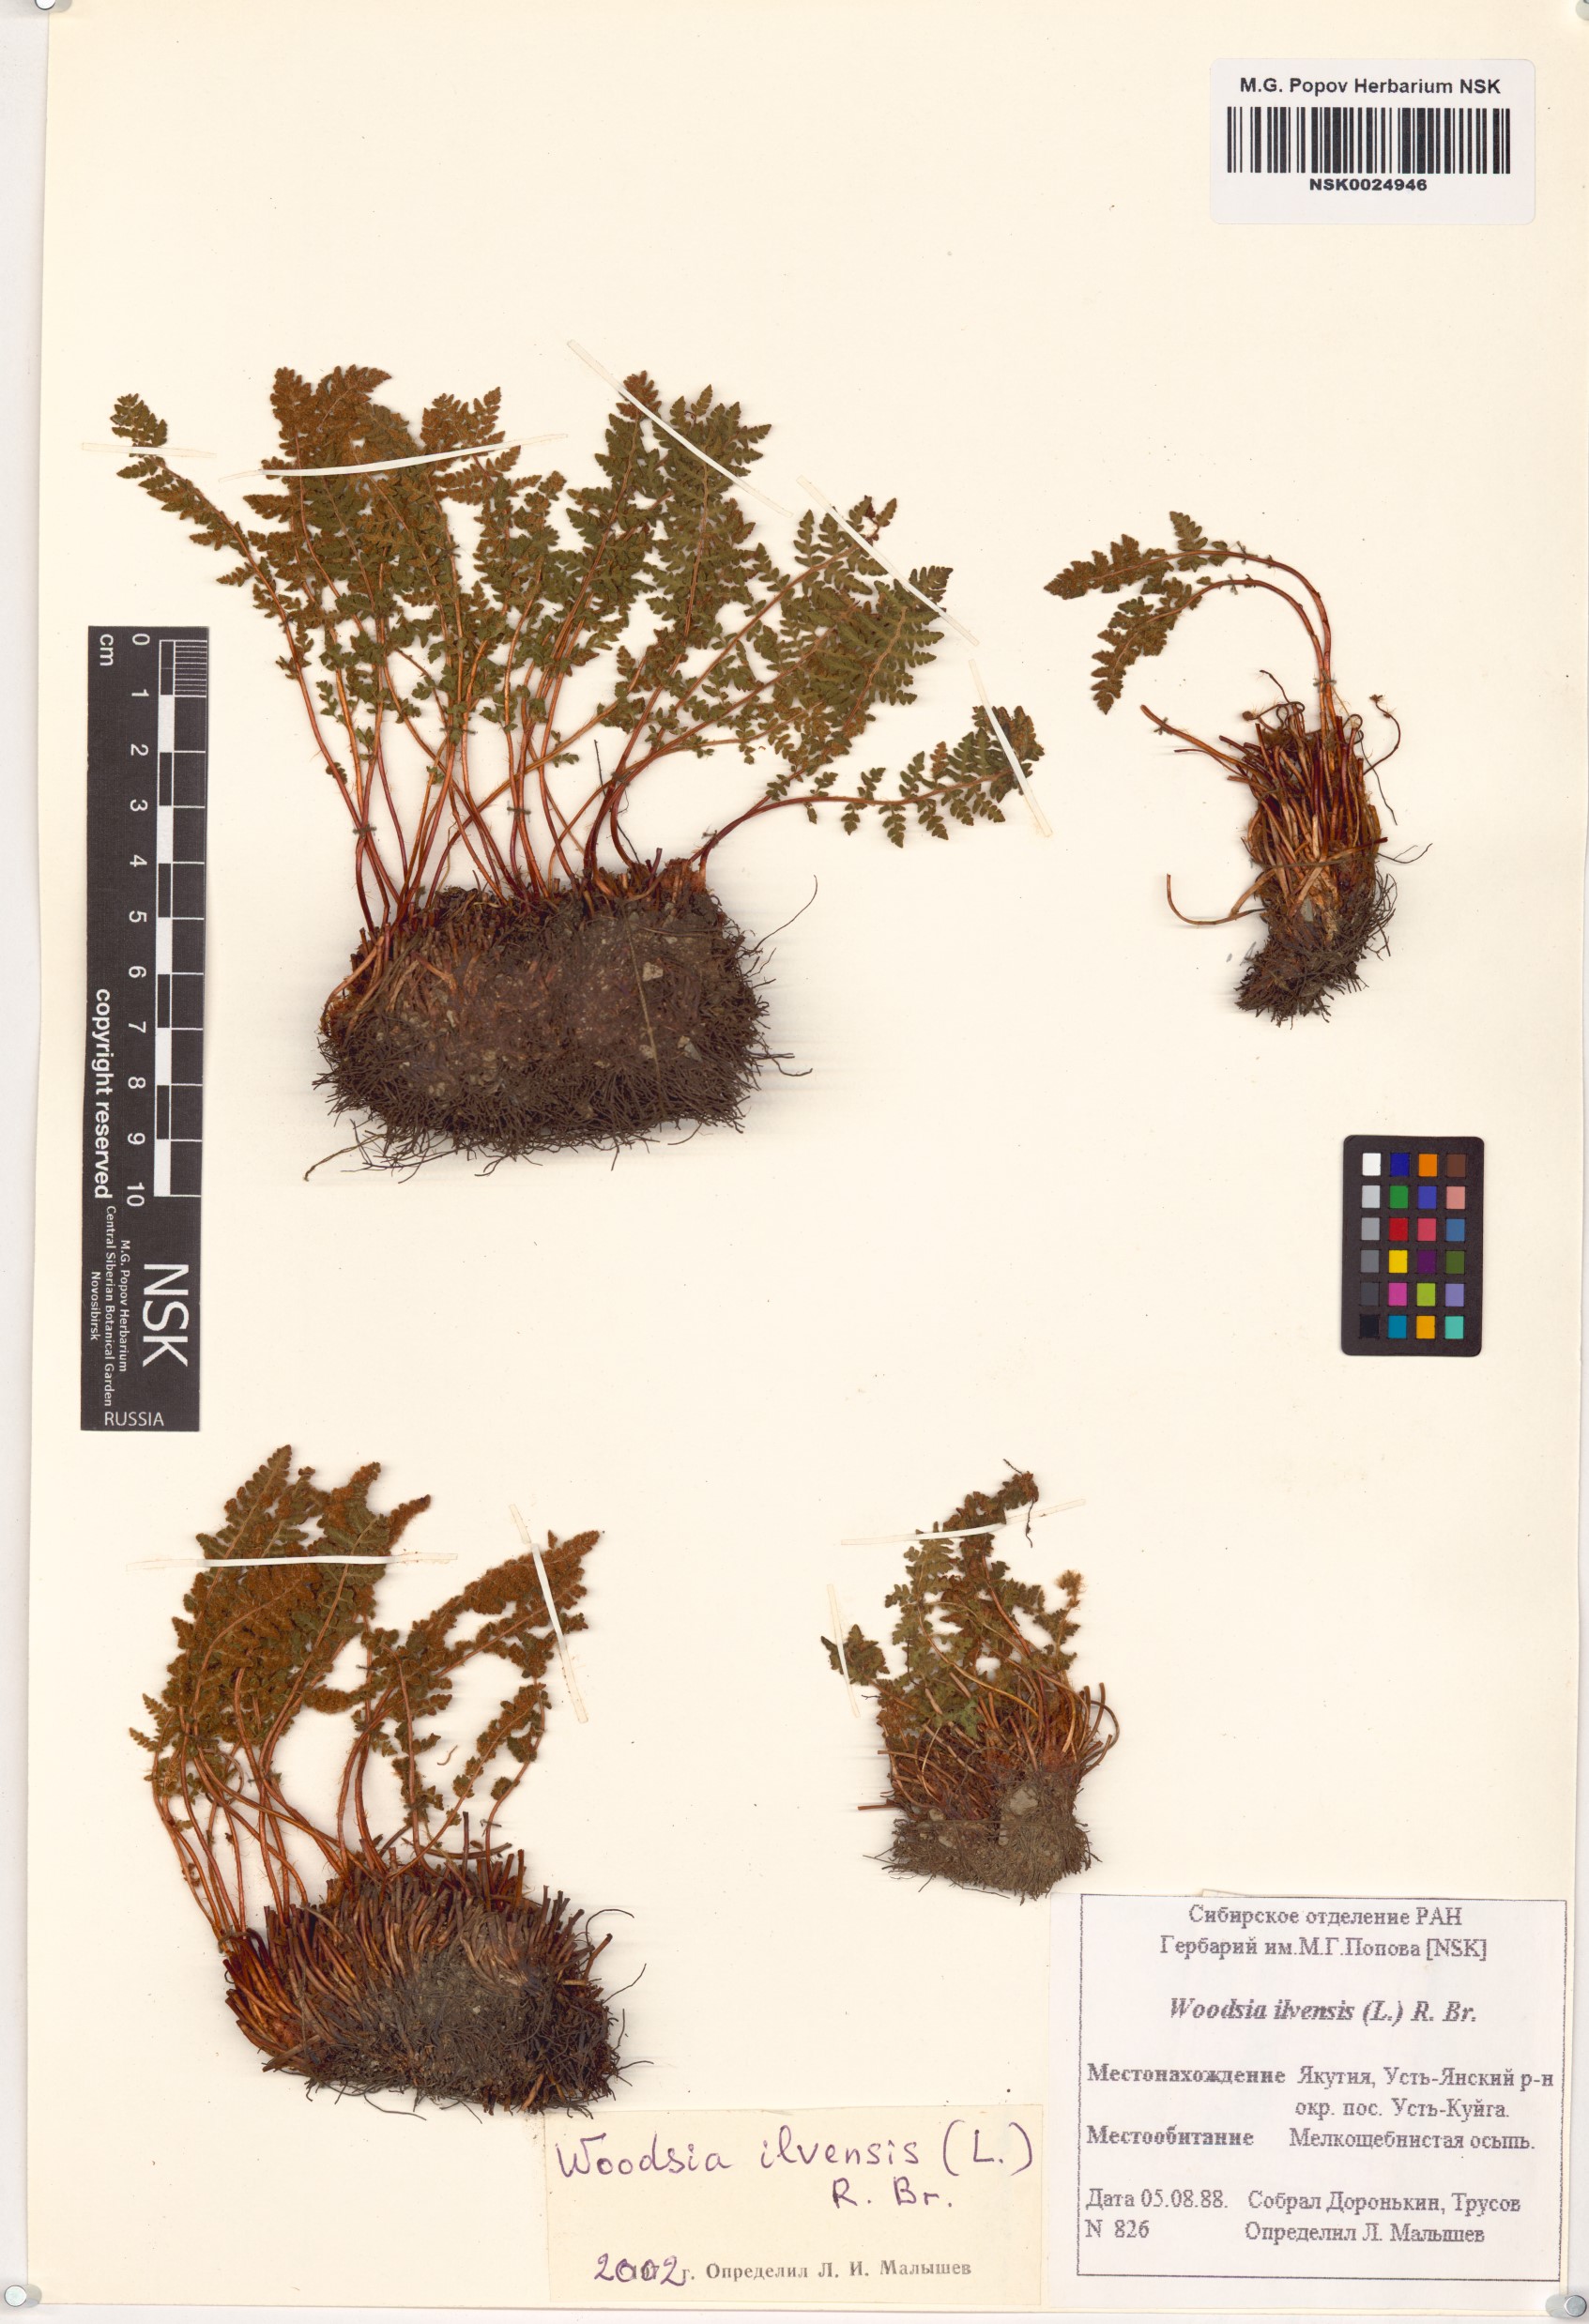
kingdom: Plantae
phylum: Tracheophyta
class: Polypodiopsida
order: Polypodiales
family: Woodsiaceae
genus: Woodsia
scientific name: Woodsia ilvensis
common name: Fragrant woodsia
